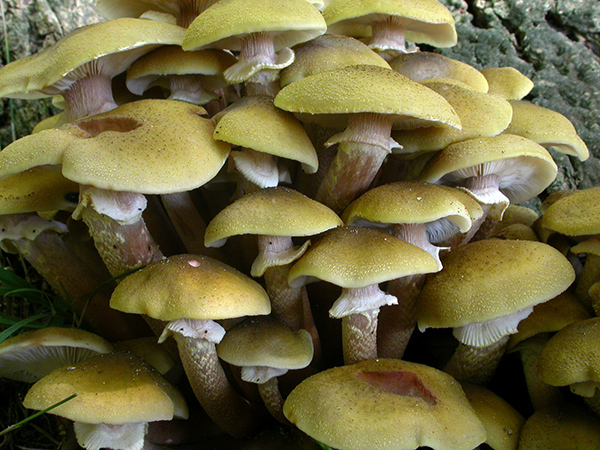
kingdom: Fungi
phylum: Basidiomycota
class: Agaricomycetes
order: Agaricales
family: Physalacriaceae
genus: Armillaria
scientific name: Armillaria mellea
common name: ægte honningsvamp
